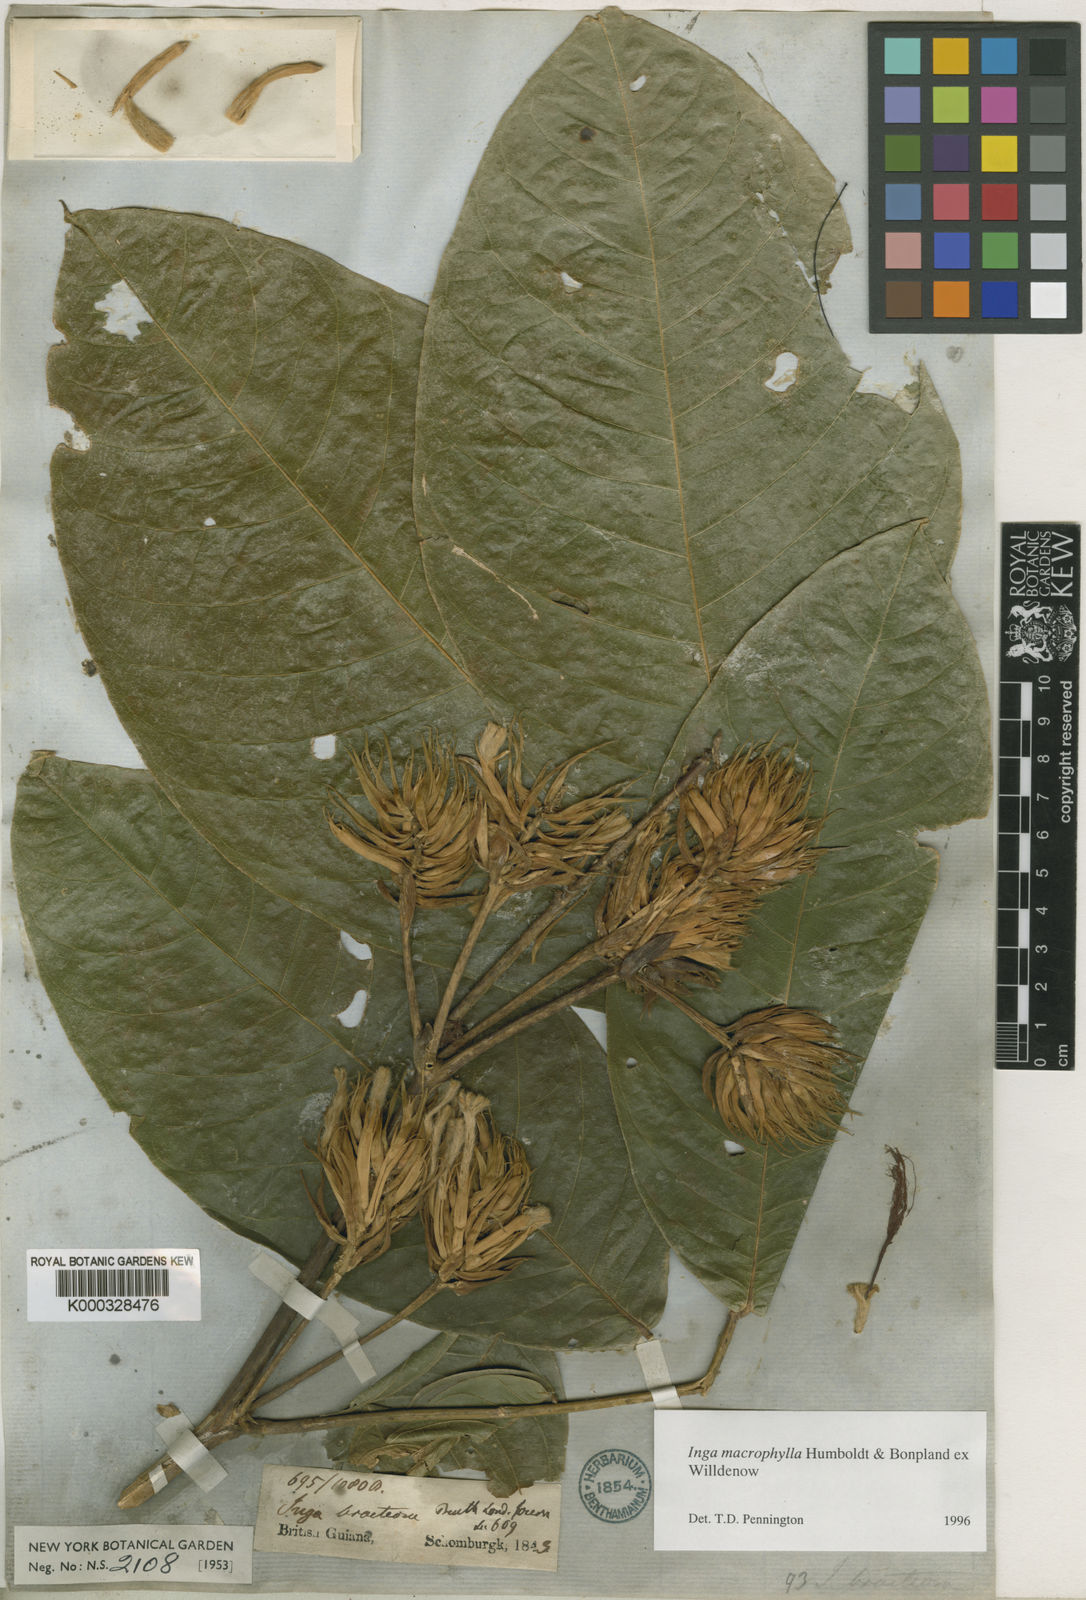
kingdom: Plantae
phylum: Tracheophyta
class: Magnoliopsida
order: Fabales
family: Fabaceae
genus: Inga
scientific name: Inga macrophylla
